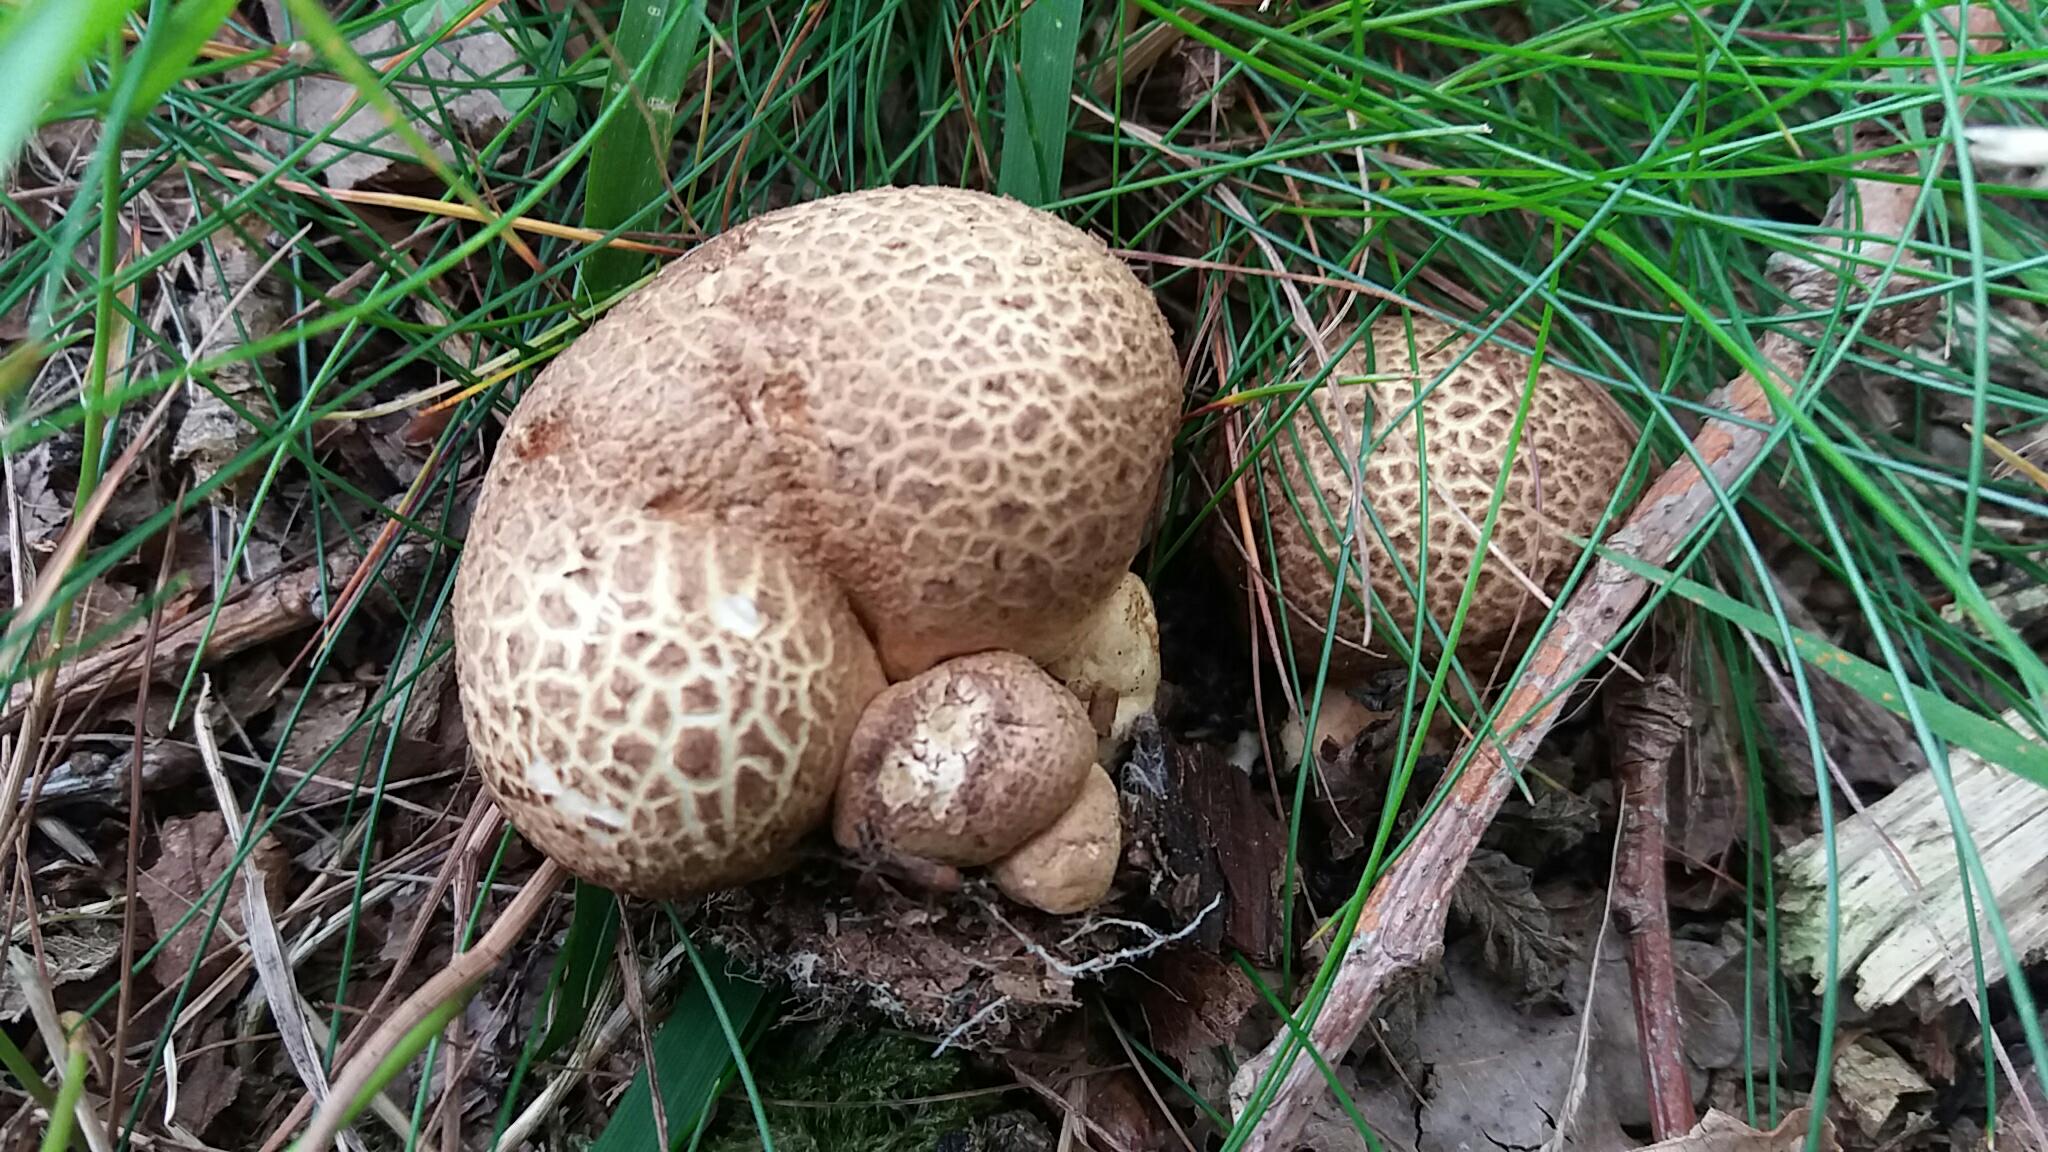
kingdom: Fungi
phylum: Basidiomycota
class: Agaricomycetes
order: Boletales
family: Sclerodermataceae
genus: Scleroderma
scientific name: Scleroderma citrinum
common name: almindelig bruskbold
